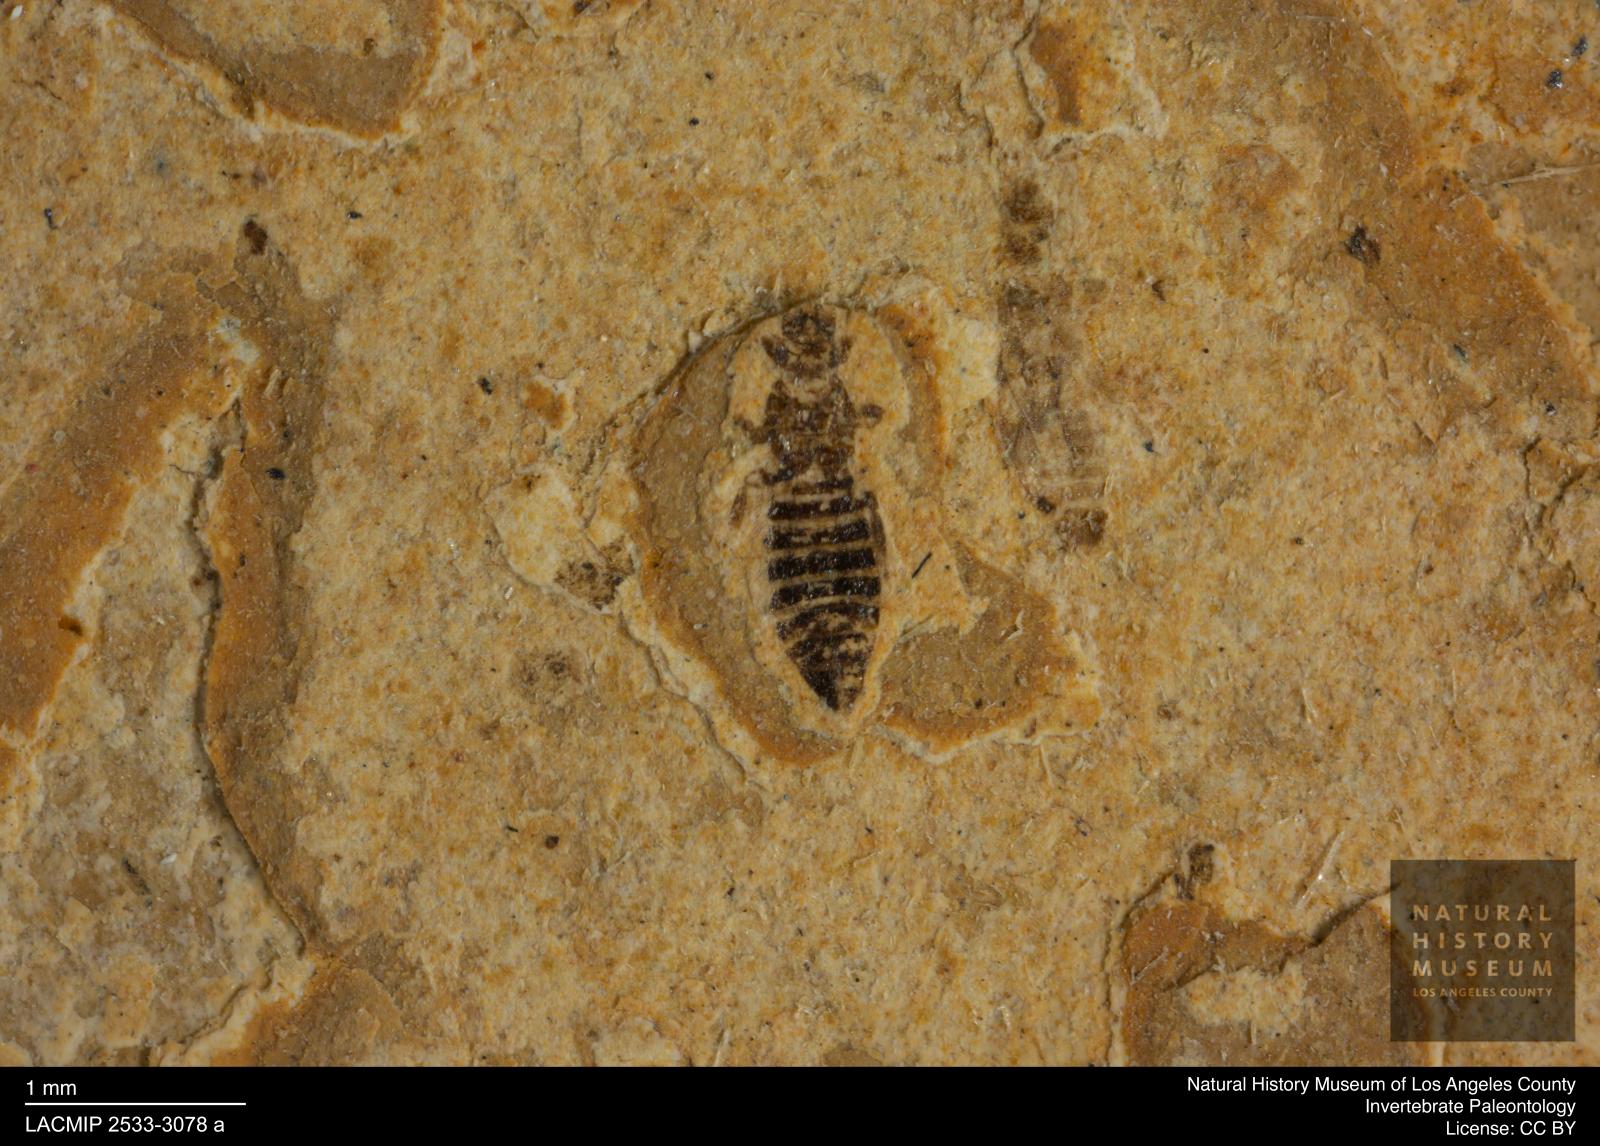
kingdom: Animalia
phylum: Arthropoda
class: Insecta
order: Thysanoptera
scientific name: Thysanoptera
